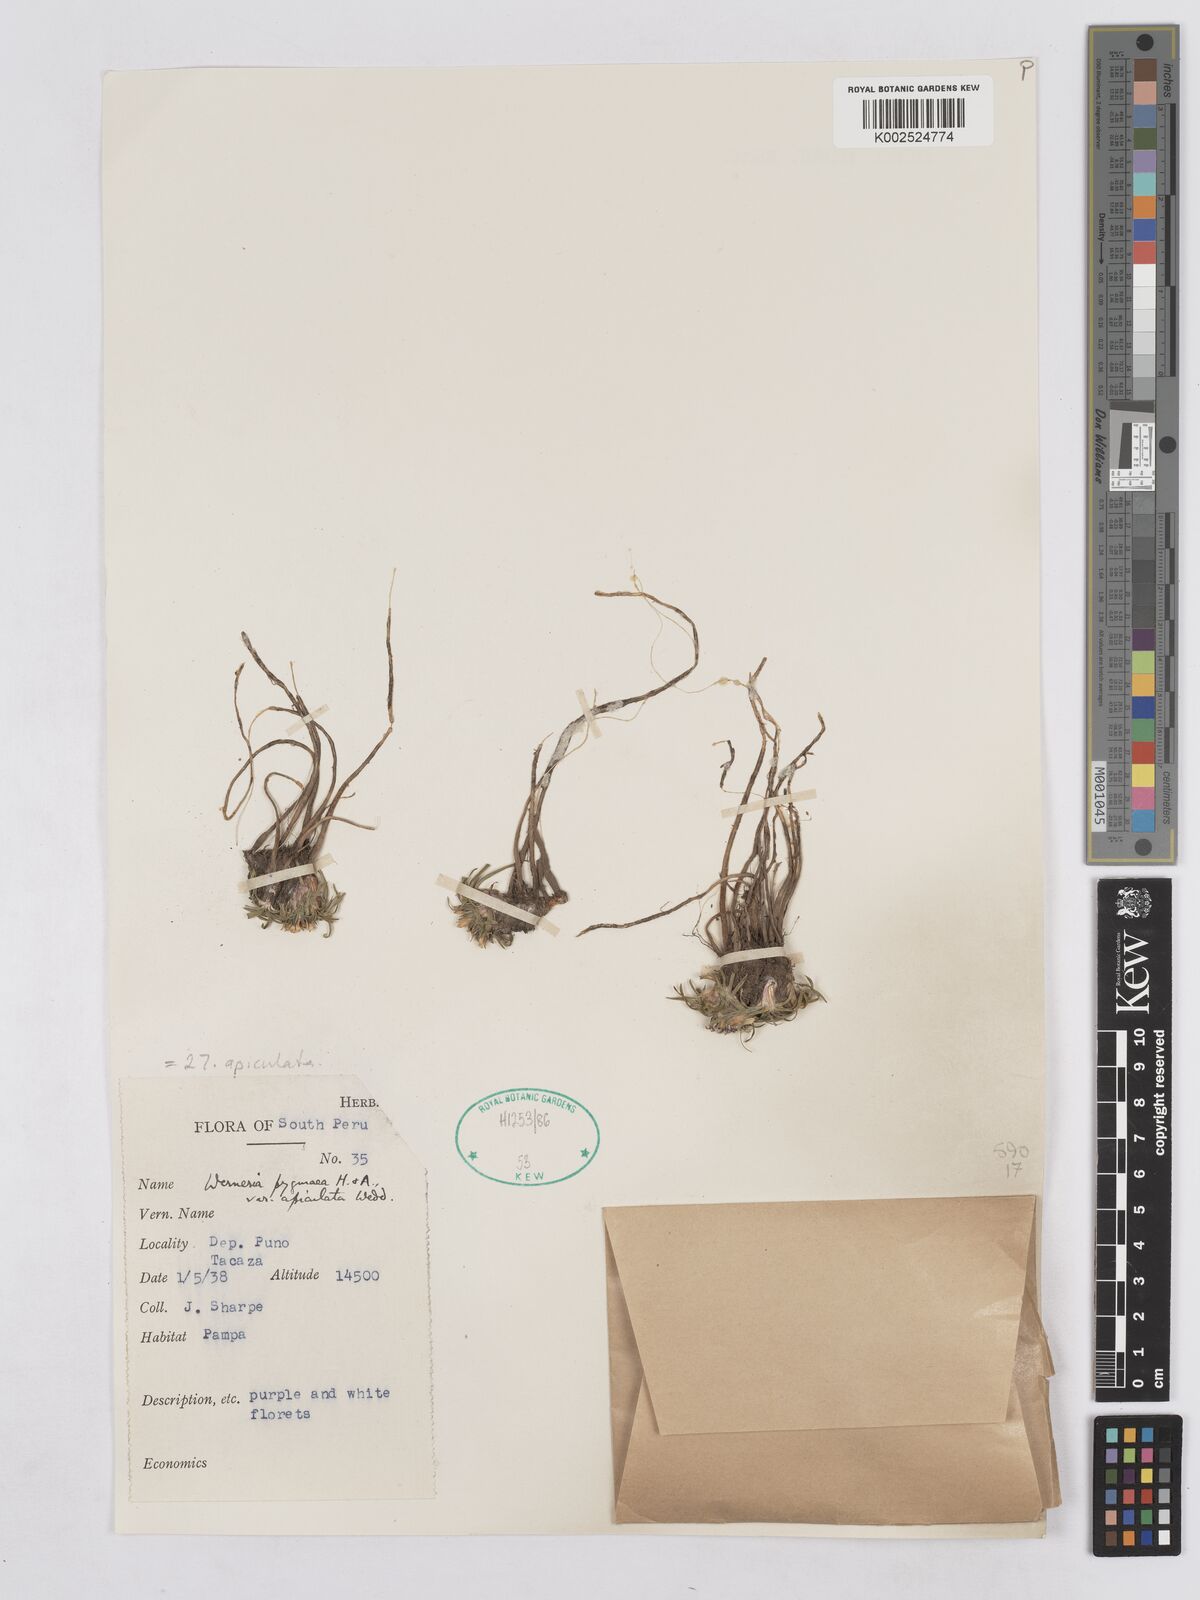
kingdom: Plantae
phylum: Tracheophyta
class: Magnoliopsida
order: Asterales
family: Asteraceae
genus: Rockhausenia
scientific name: Rockhausenia apiculata
